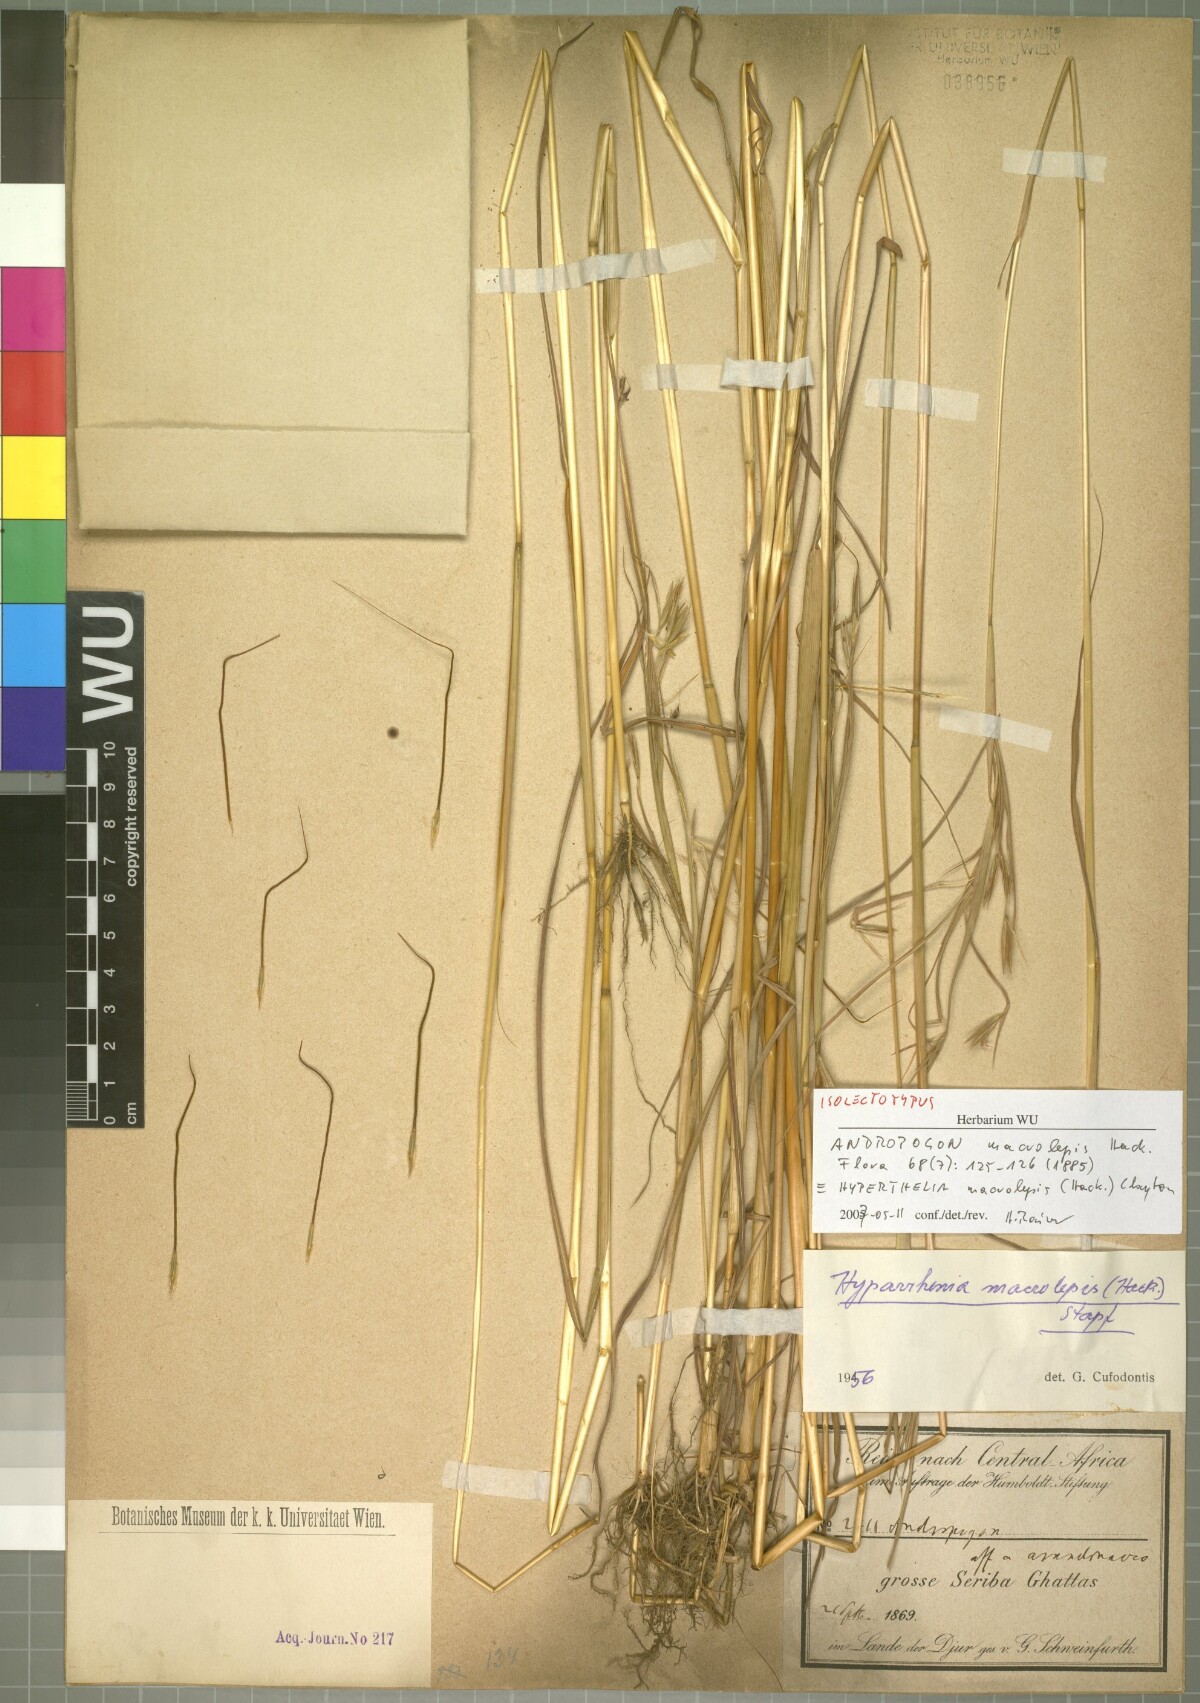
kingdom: Plantae
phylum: Tracheophyta
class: Liliopsida
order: Poales
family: Poaceae
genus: Hyperthelia
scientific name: Hyperthelia dissoluta
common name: Yellow thatching grass
